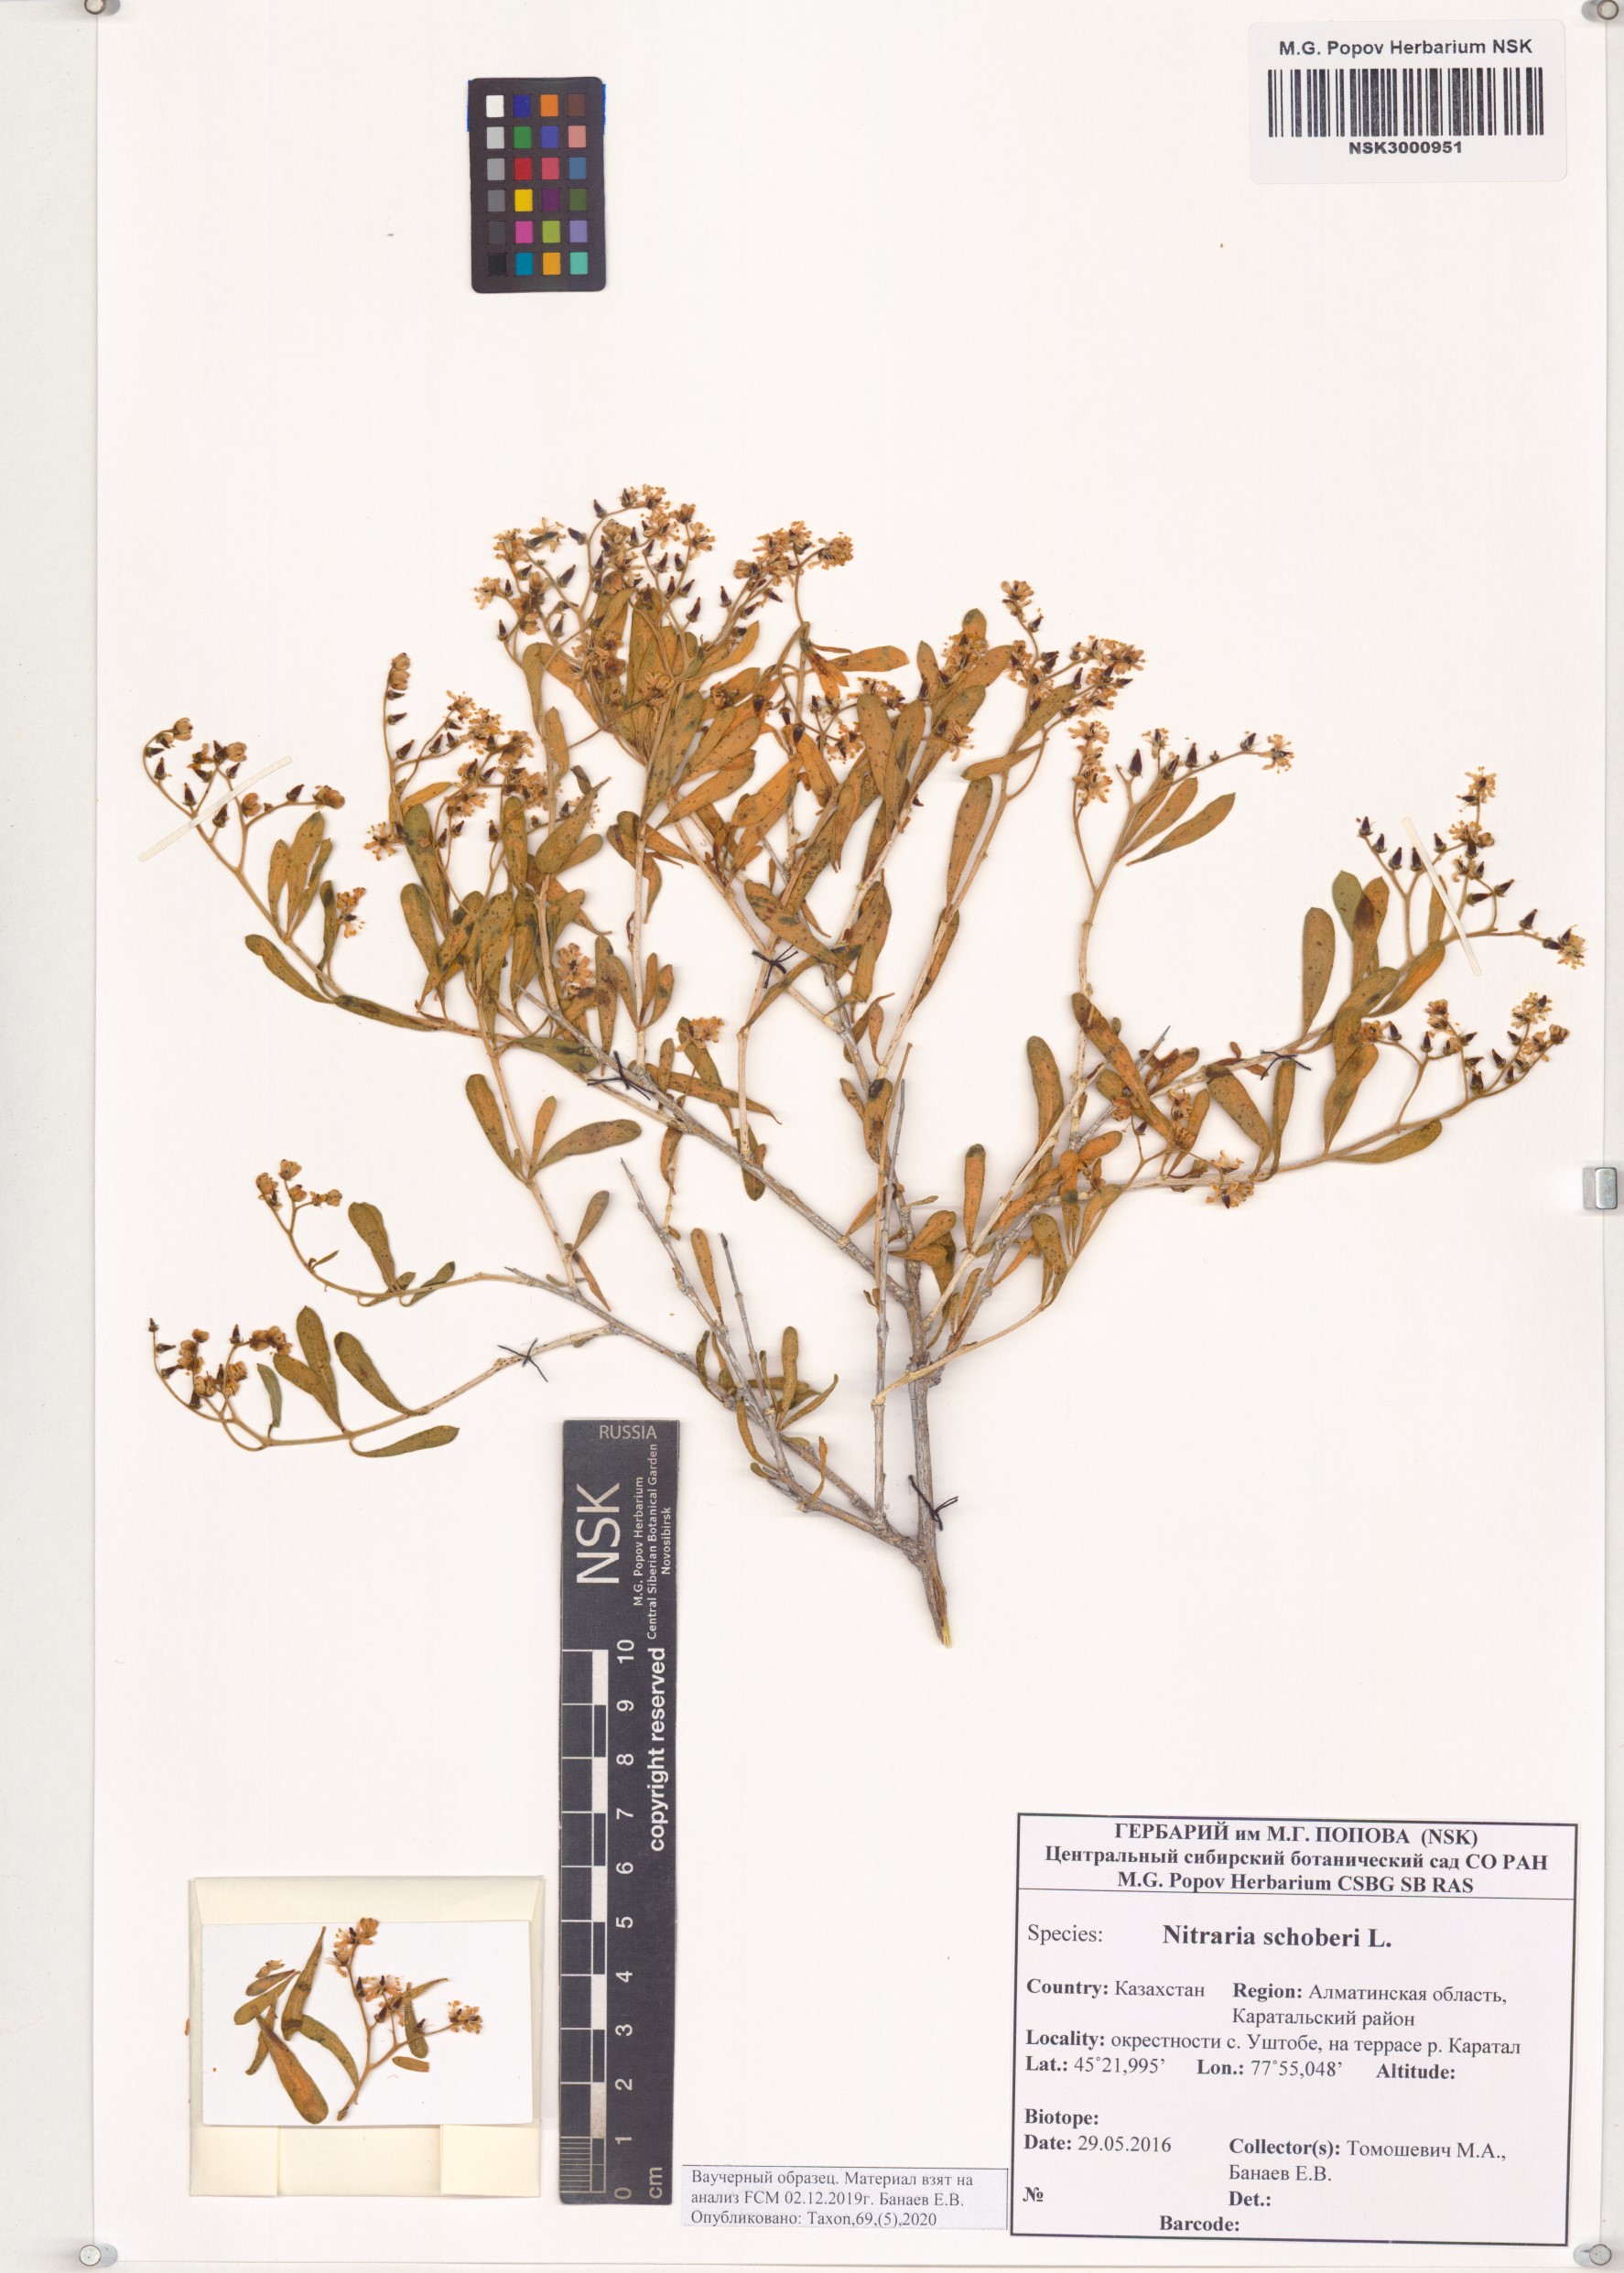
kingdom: Plantae
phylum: Tracheophyta
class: Magnoliopsida
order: Sapindales
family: Nitrariaceae
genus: Nitraria
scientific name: Nitraria schoberi
